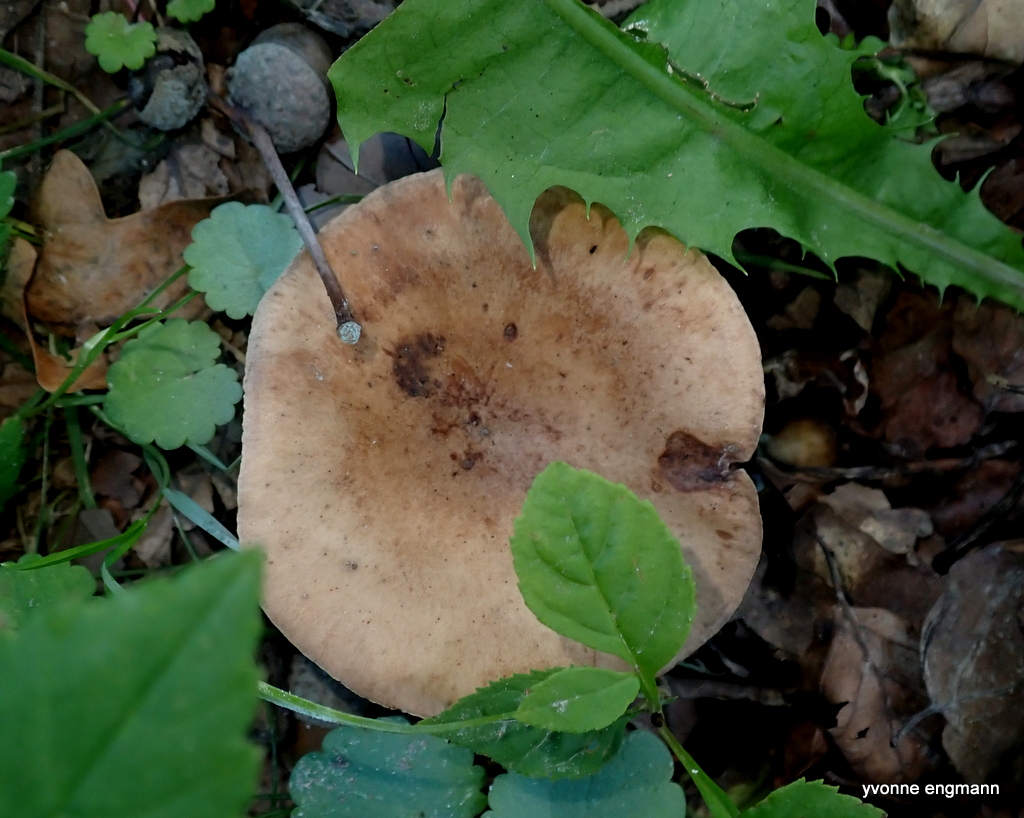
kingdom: Fungi
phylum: Basidiomycota
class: Agaricomycetes
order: Russulales
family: Russulaceae
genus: Lactarius
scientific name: Lactarius quietus
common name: ege-mælkehat
